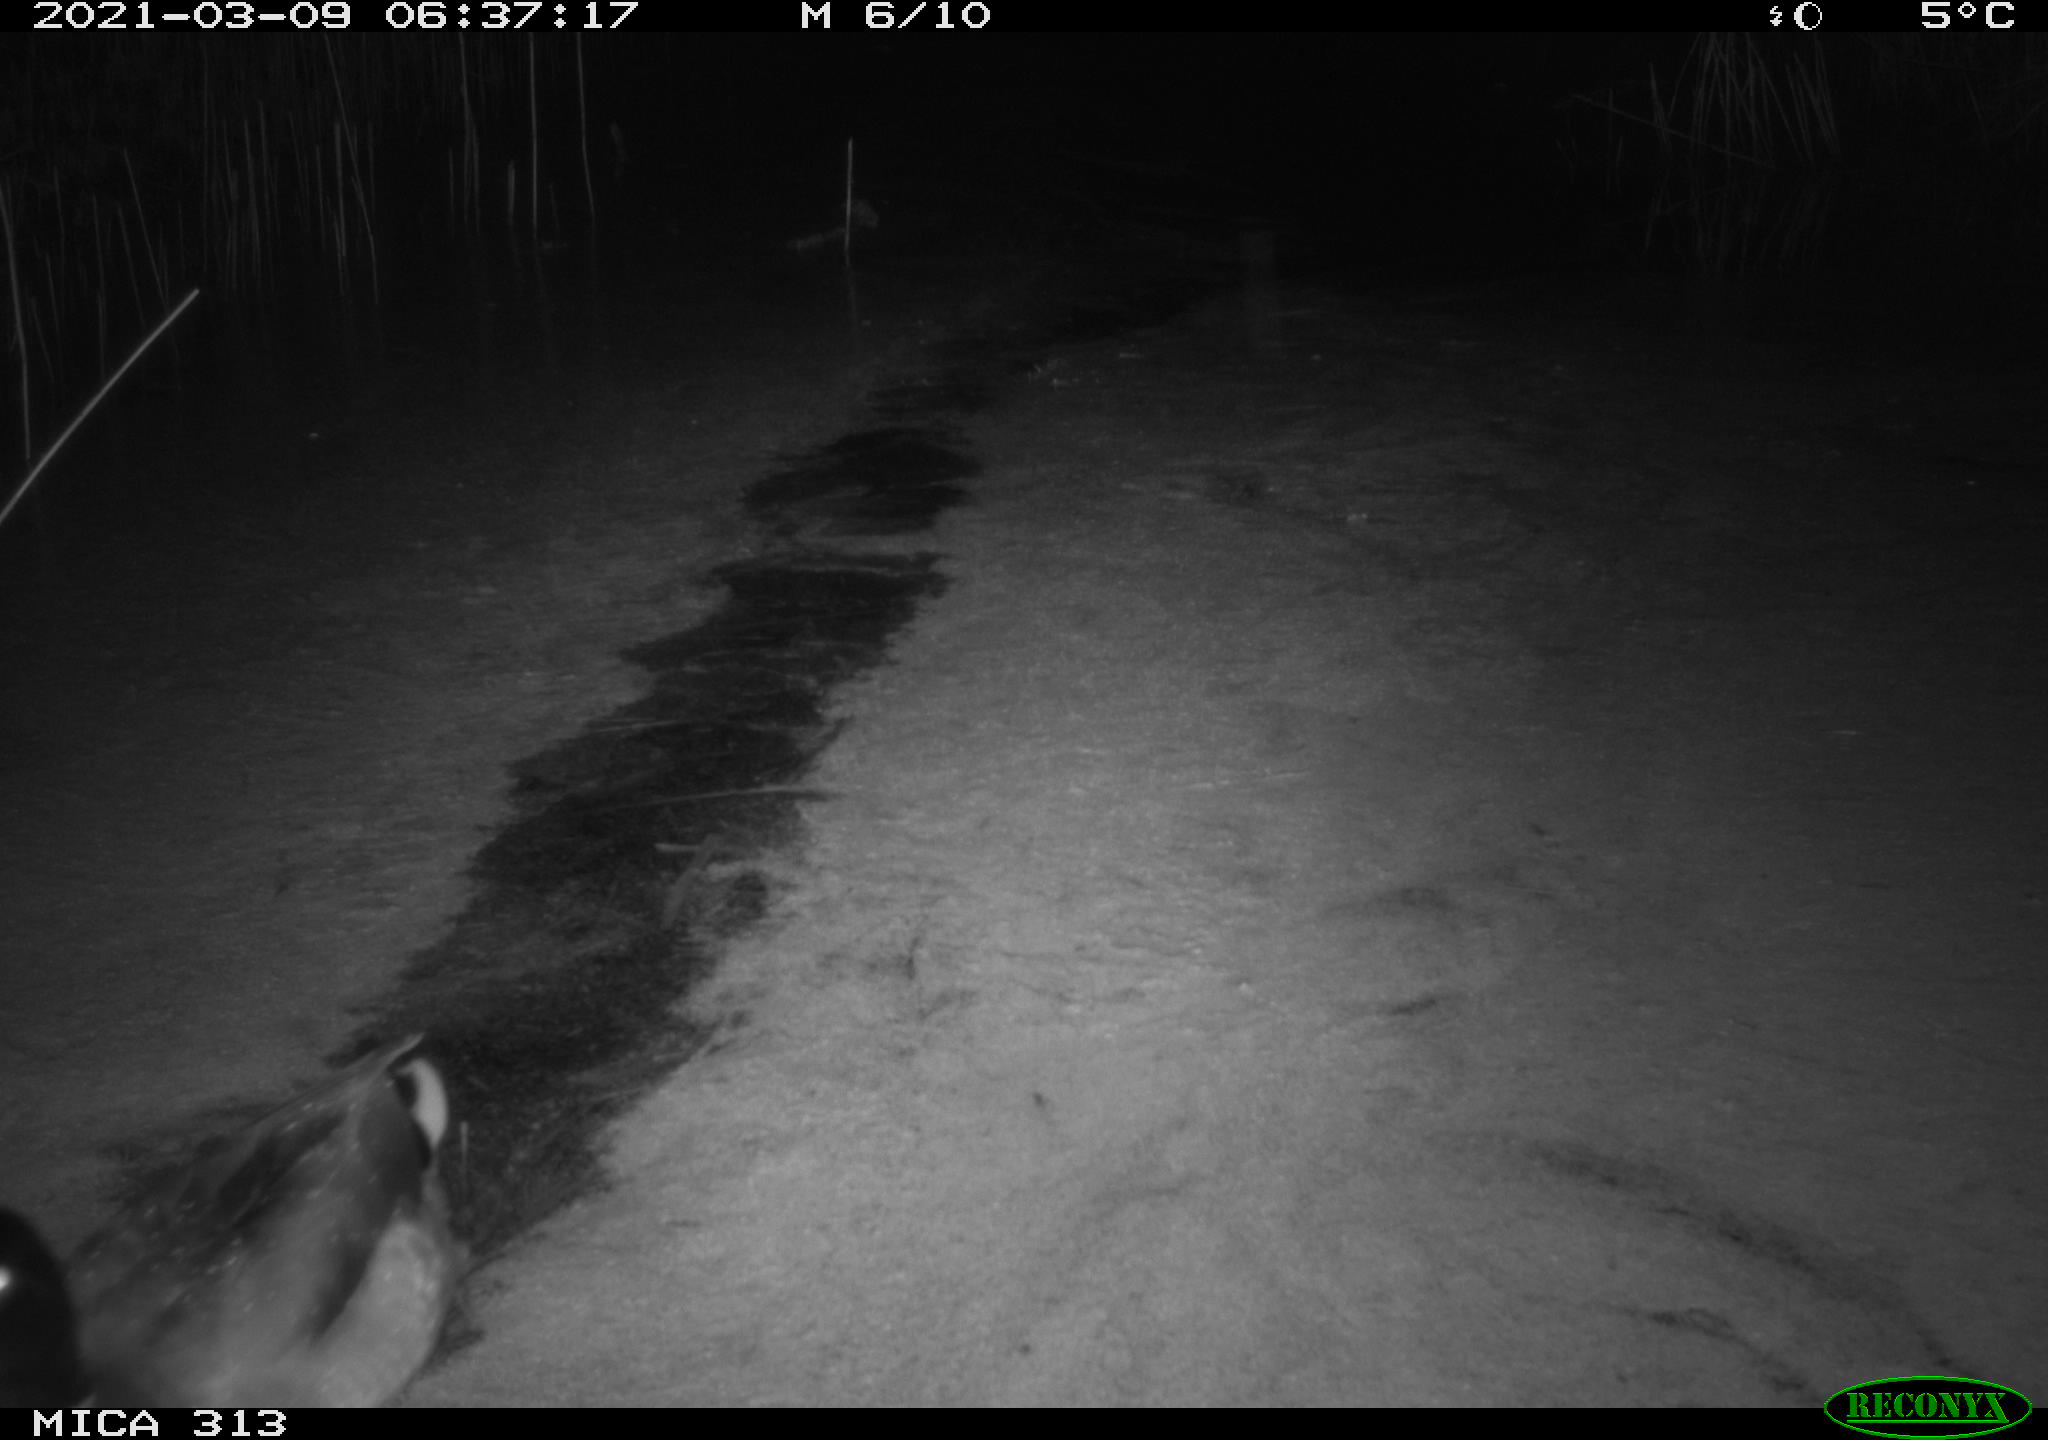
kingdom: Animalia
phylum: Chordata
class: Aves
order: Gruiformes
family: Rallidae
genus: Fulica
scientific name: Fulica atra
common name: Eurasian coot
